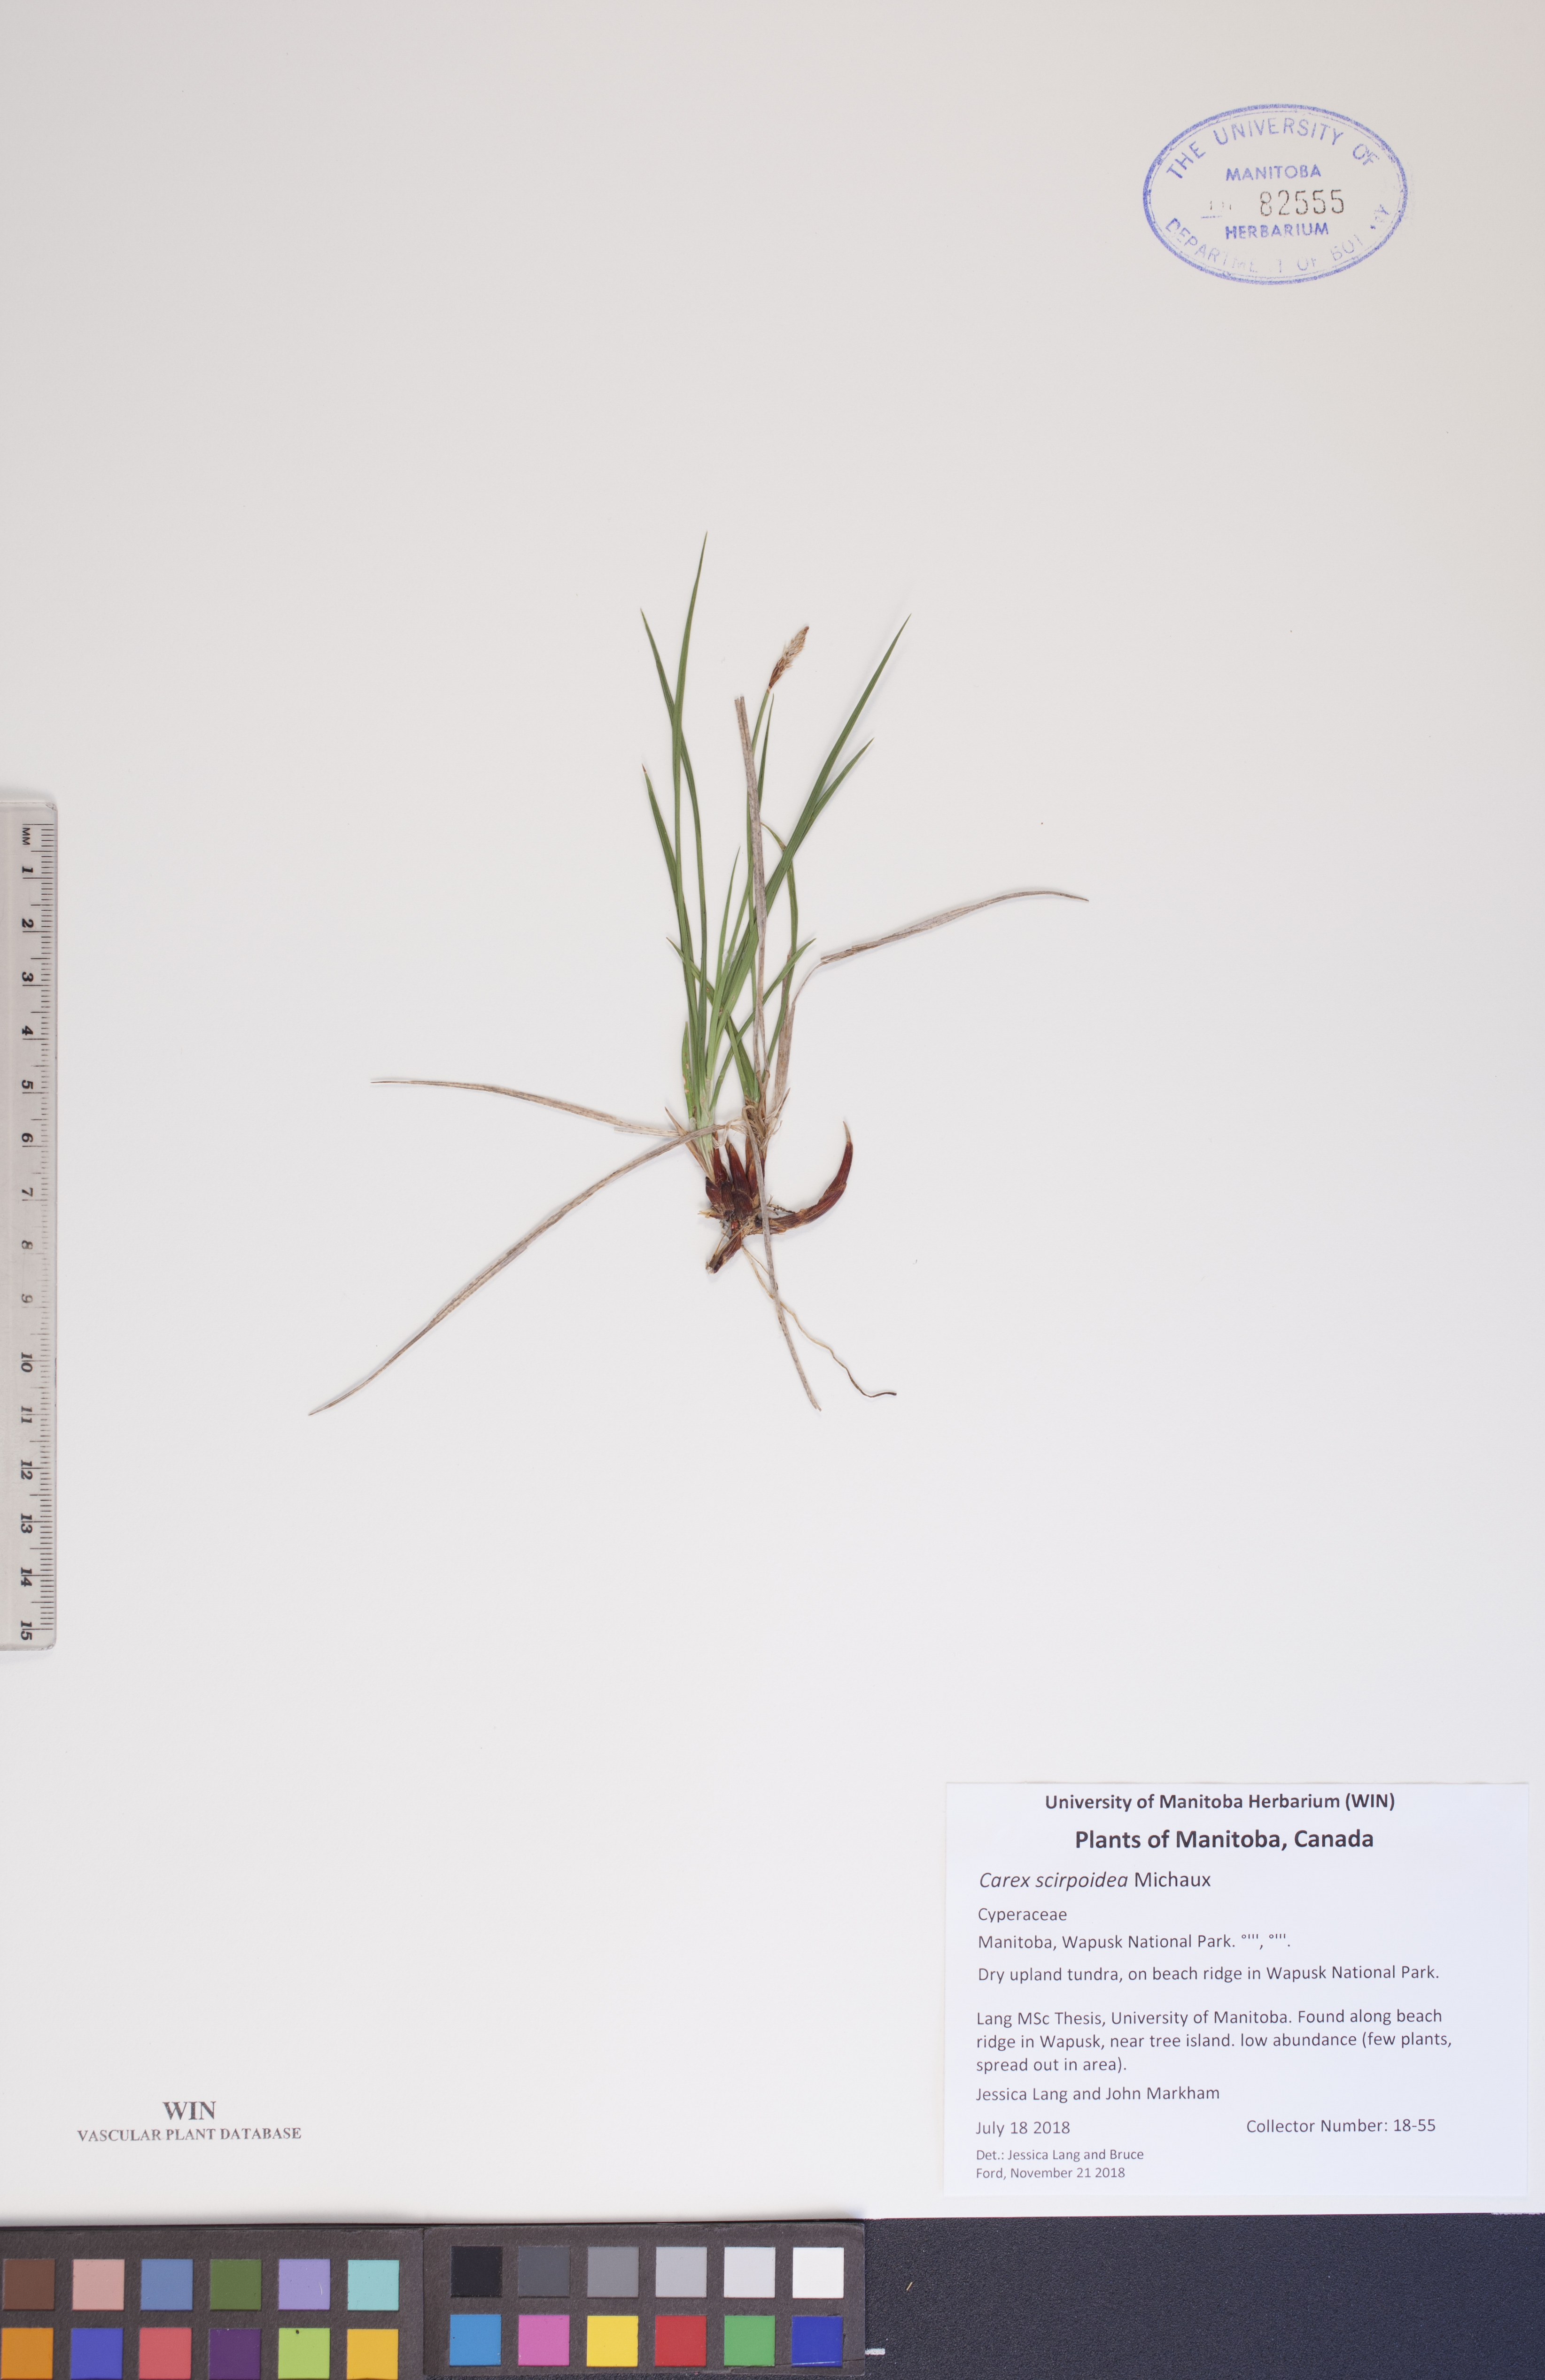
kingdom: Plantae
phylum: Tracheophyta
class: Liliopsida
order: Poales
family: Cyperaceae
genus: Carex
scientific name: Carex scirpoidea
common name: Canada single-spike sedge
